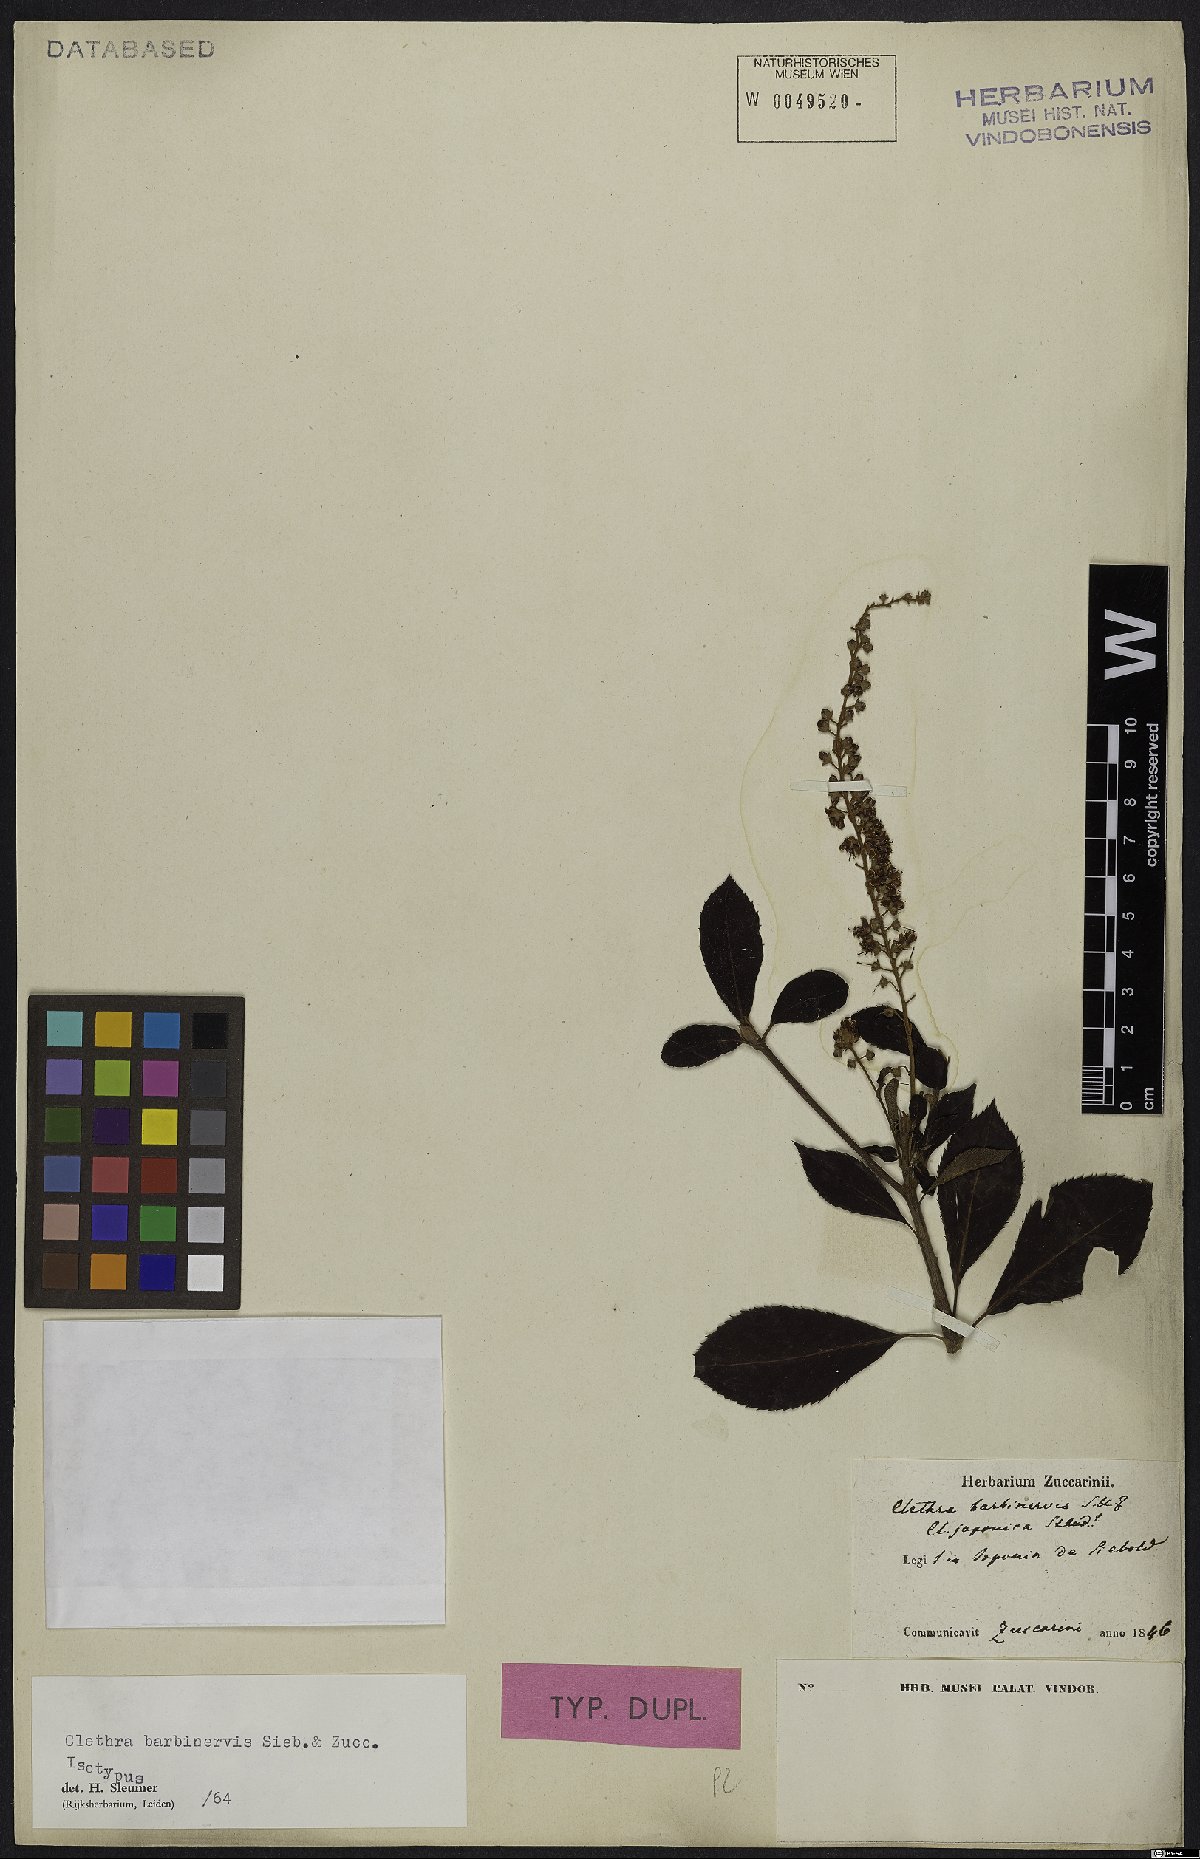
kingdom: Plantae
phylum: Tracheophyta
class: Magnoliopsida
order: Ericales
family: Clethraceae
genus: Clethra
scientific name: Clethra barbinervis
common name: Japanese clethra
